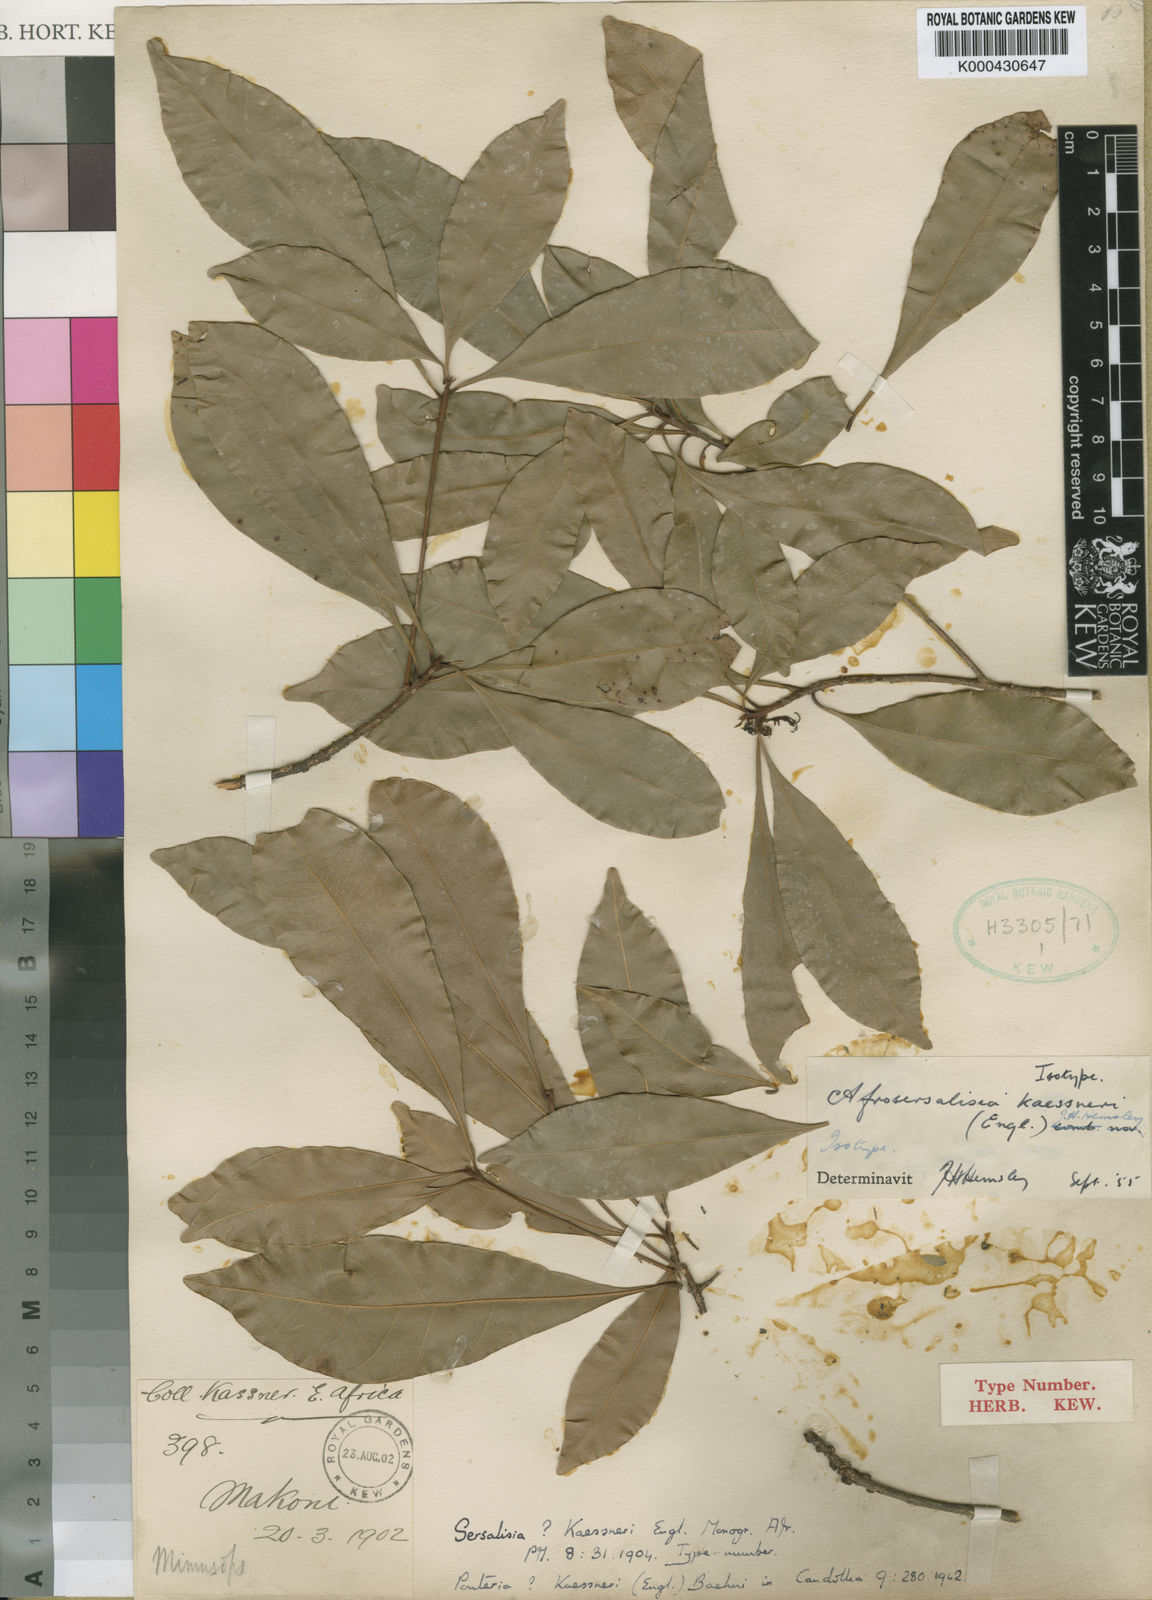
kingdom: Plantae
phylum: Tracheophyta
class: Magnoliopsida
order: Ericales
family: Sapotaceae
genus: Synsepalum
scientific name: Synsepalum
